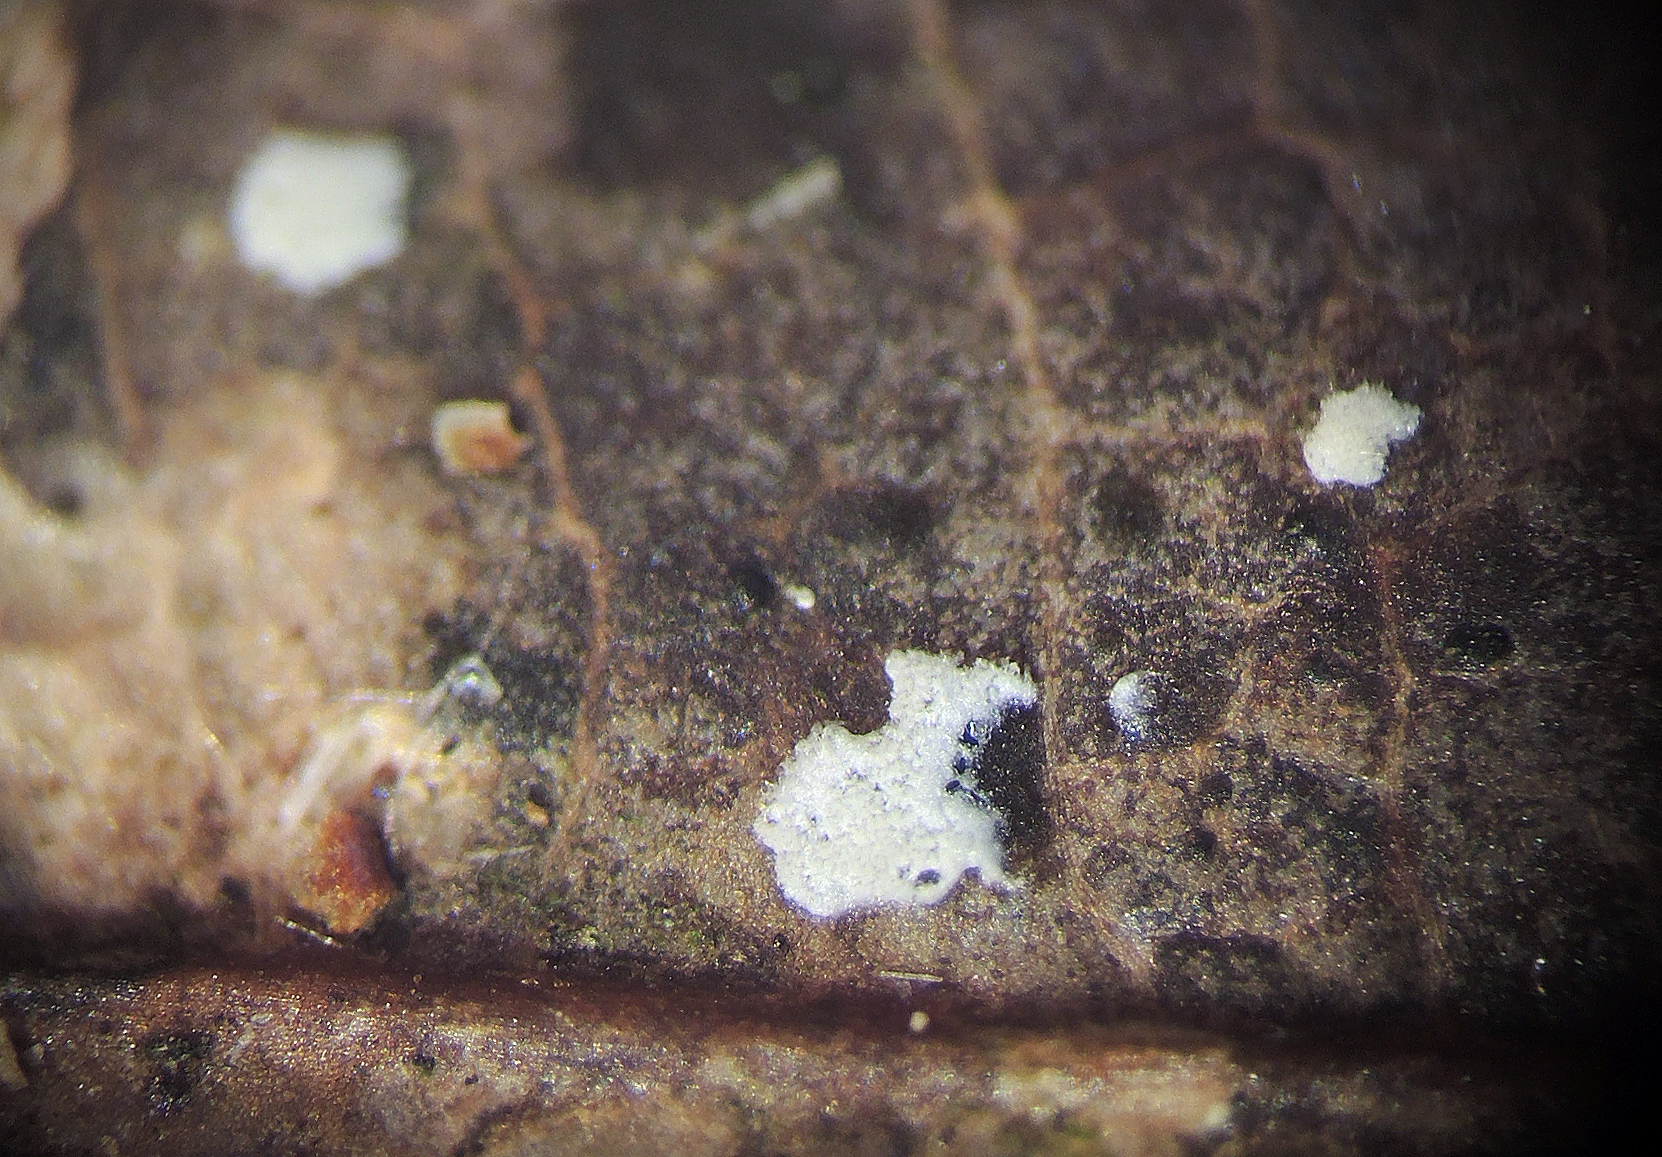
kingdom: Fungi
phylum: Ascomycota
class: Sordariomycetes
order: Hypocreales
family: Cylindriaceae
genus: Cylindrium
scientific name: Cylindrium elongatum
